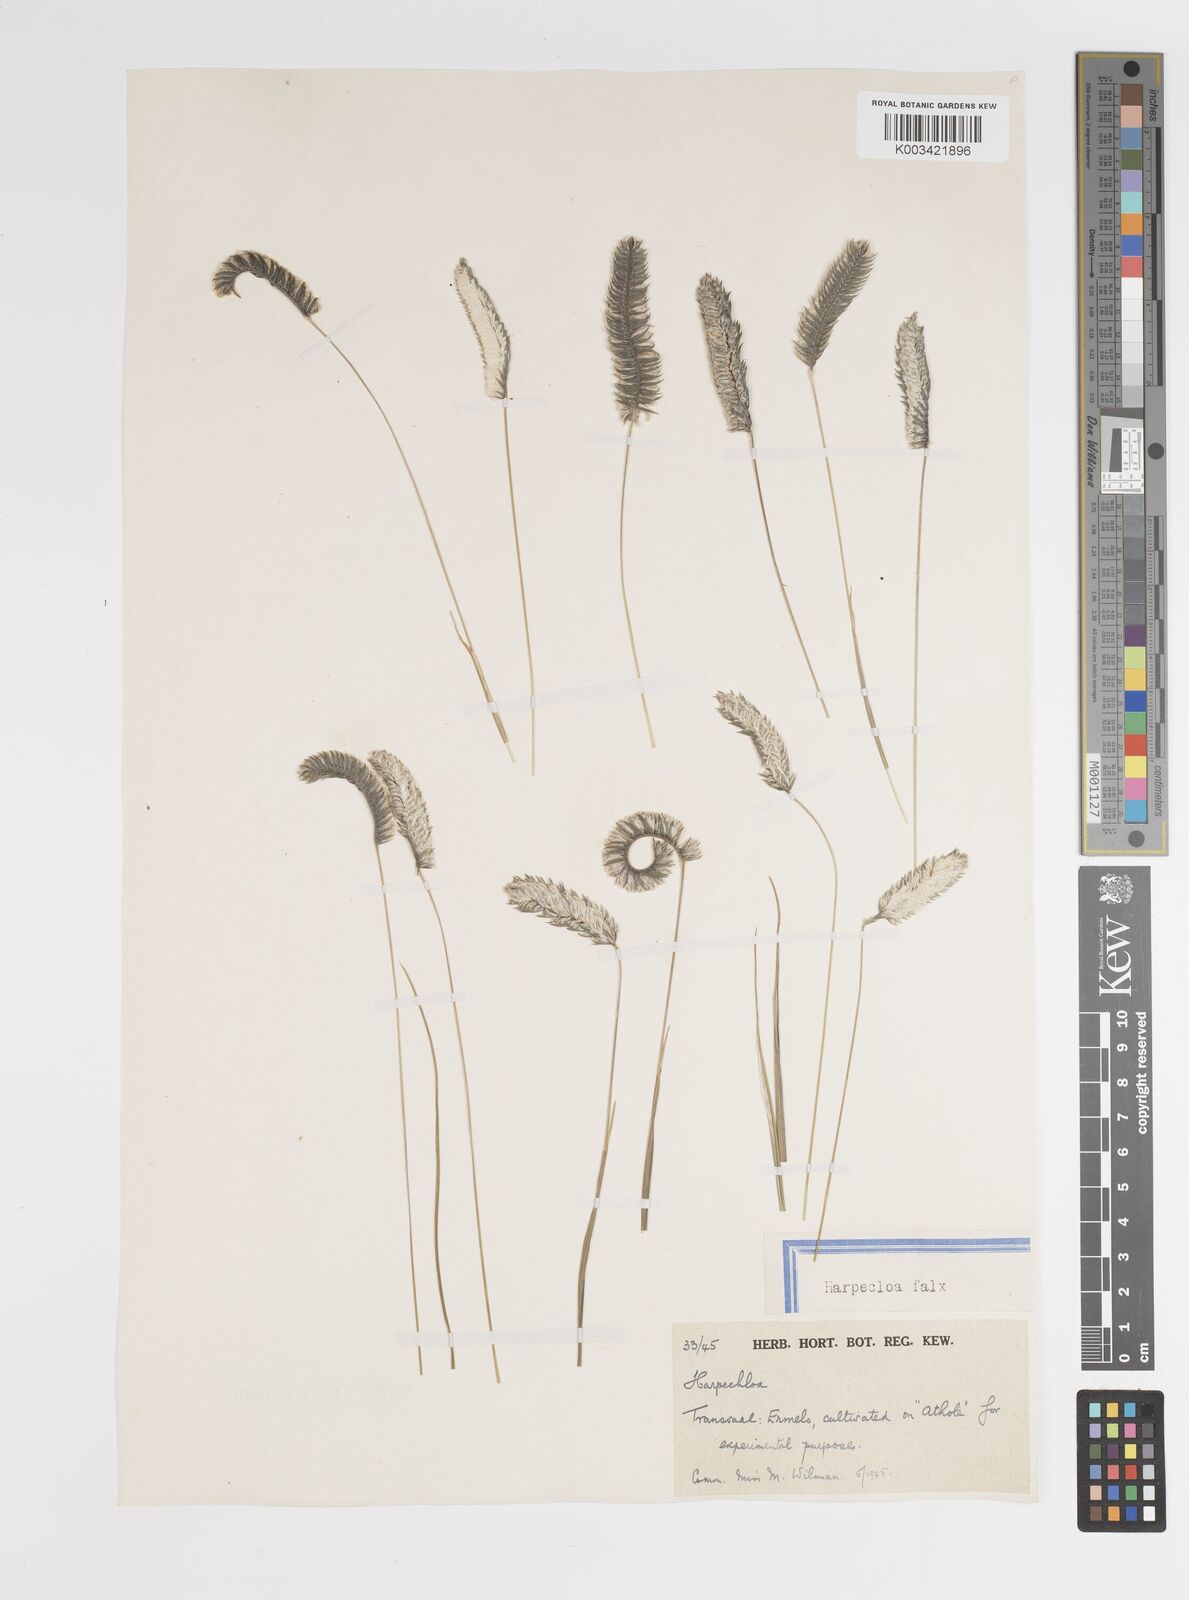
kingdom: Plantae
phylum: Tracheophyta
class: Liliopsida
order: Poales
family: Poaceae
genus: Harpochloa
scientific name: Harpochloa falx
